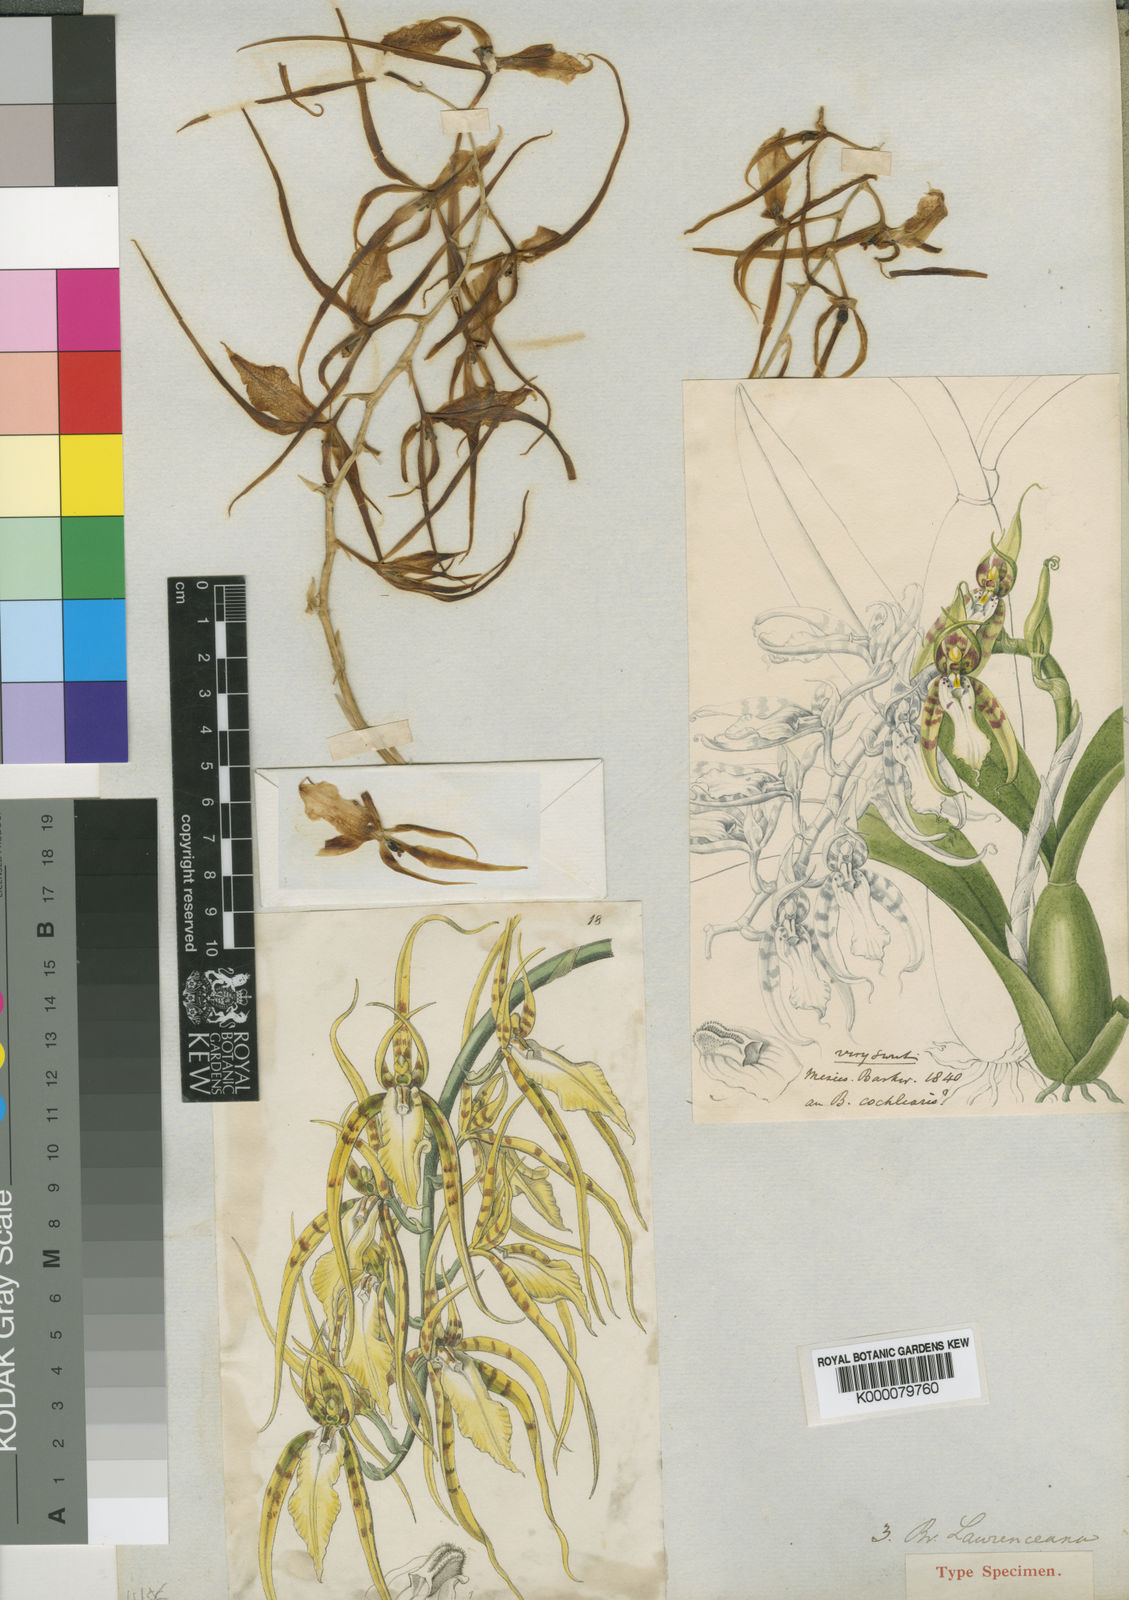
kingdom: Plantae
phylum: Tracheophyta
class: Liliopsida
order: Asparagales
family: Orchidaceae
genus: Brassia
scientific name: Brassia cochleata
